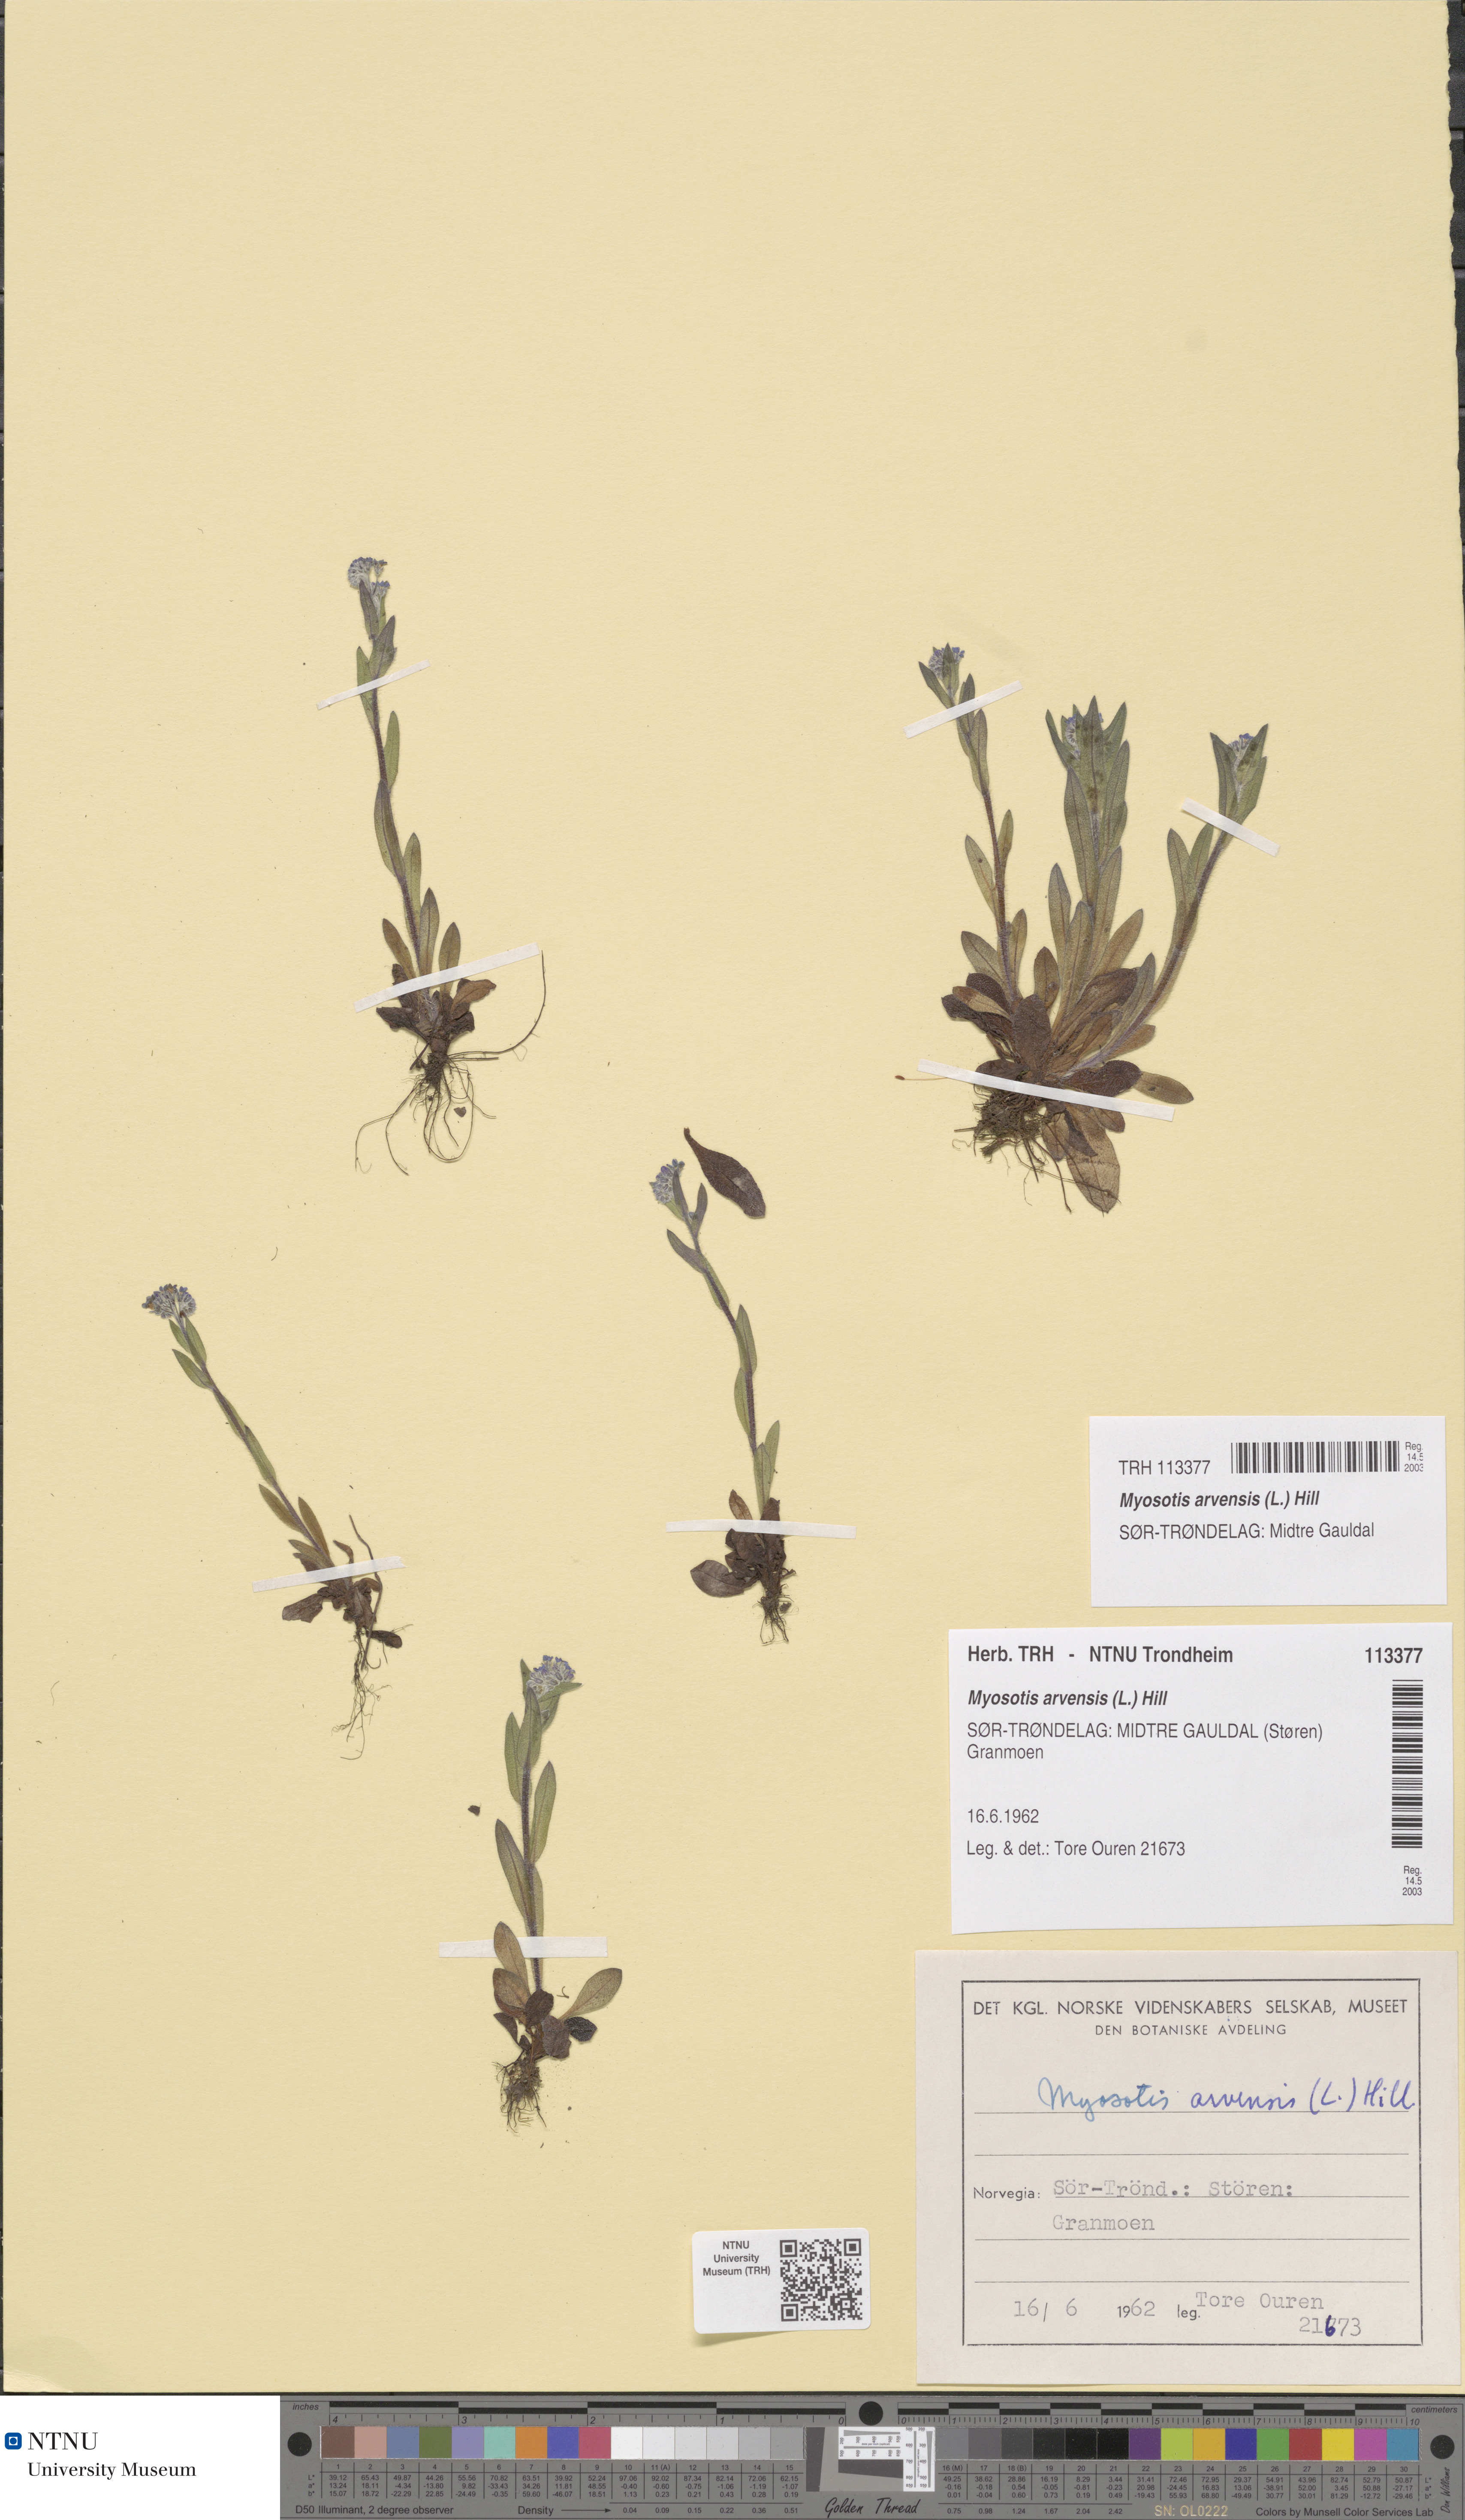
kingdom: Plantae
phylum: Tracheophyta
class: Magnoliopsida
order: Boraginales
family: Boraginaceae
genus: Myosotis
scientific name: Myosotis arvensis
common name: Field forget-me-not
